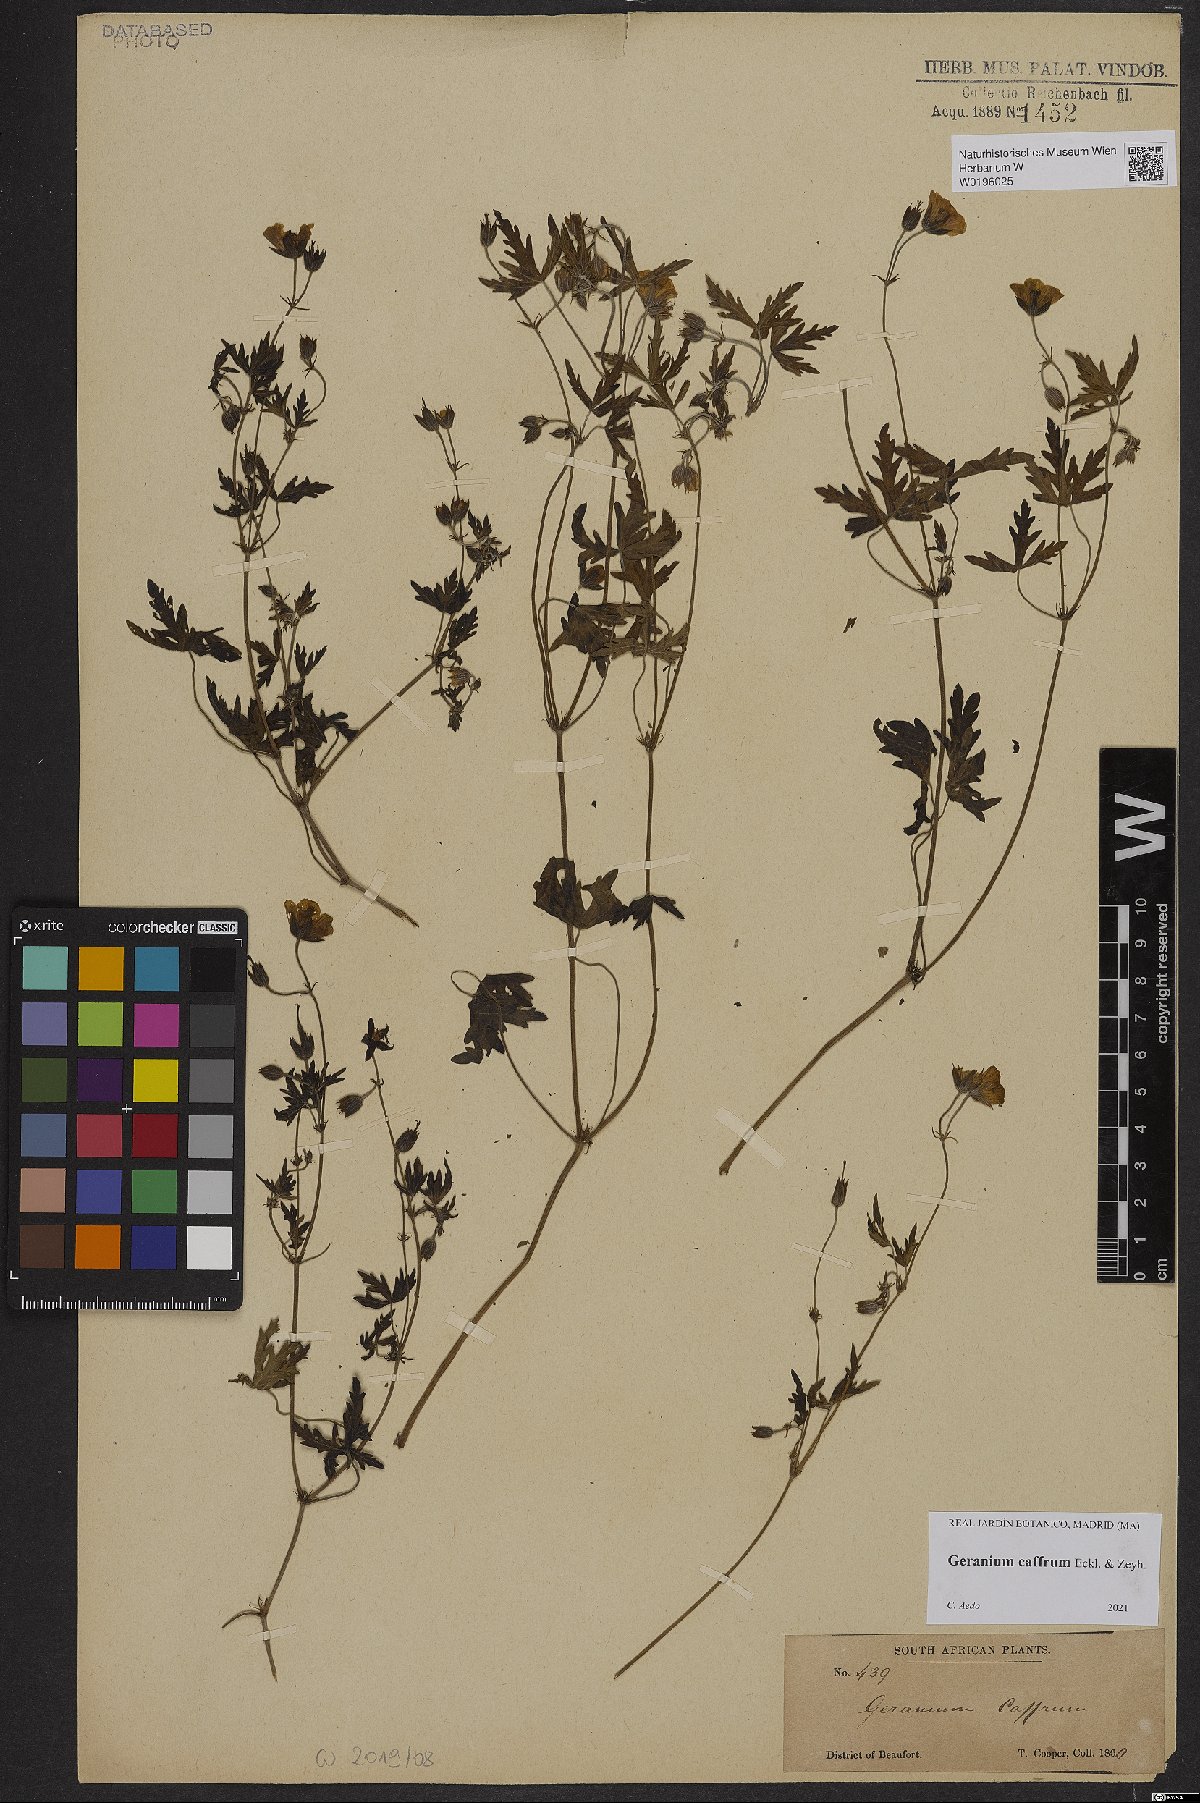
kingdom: Plantae
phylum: Tracheophyta
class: Magnoliopsida
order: Geraniales
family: Geraniaceae
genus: Geranium
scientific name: Geranium caffrum
